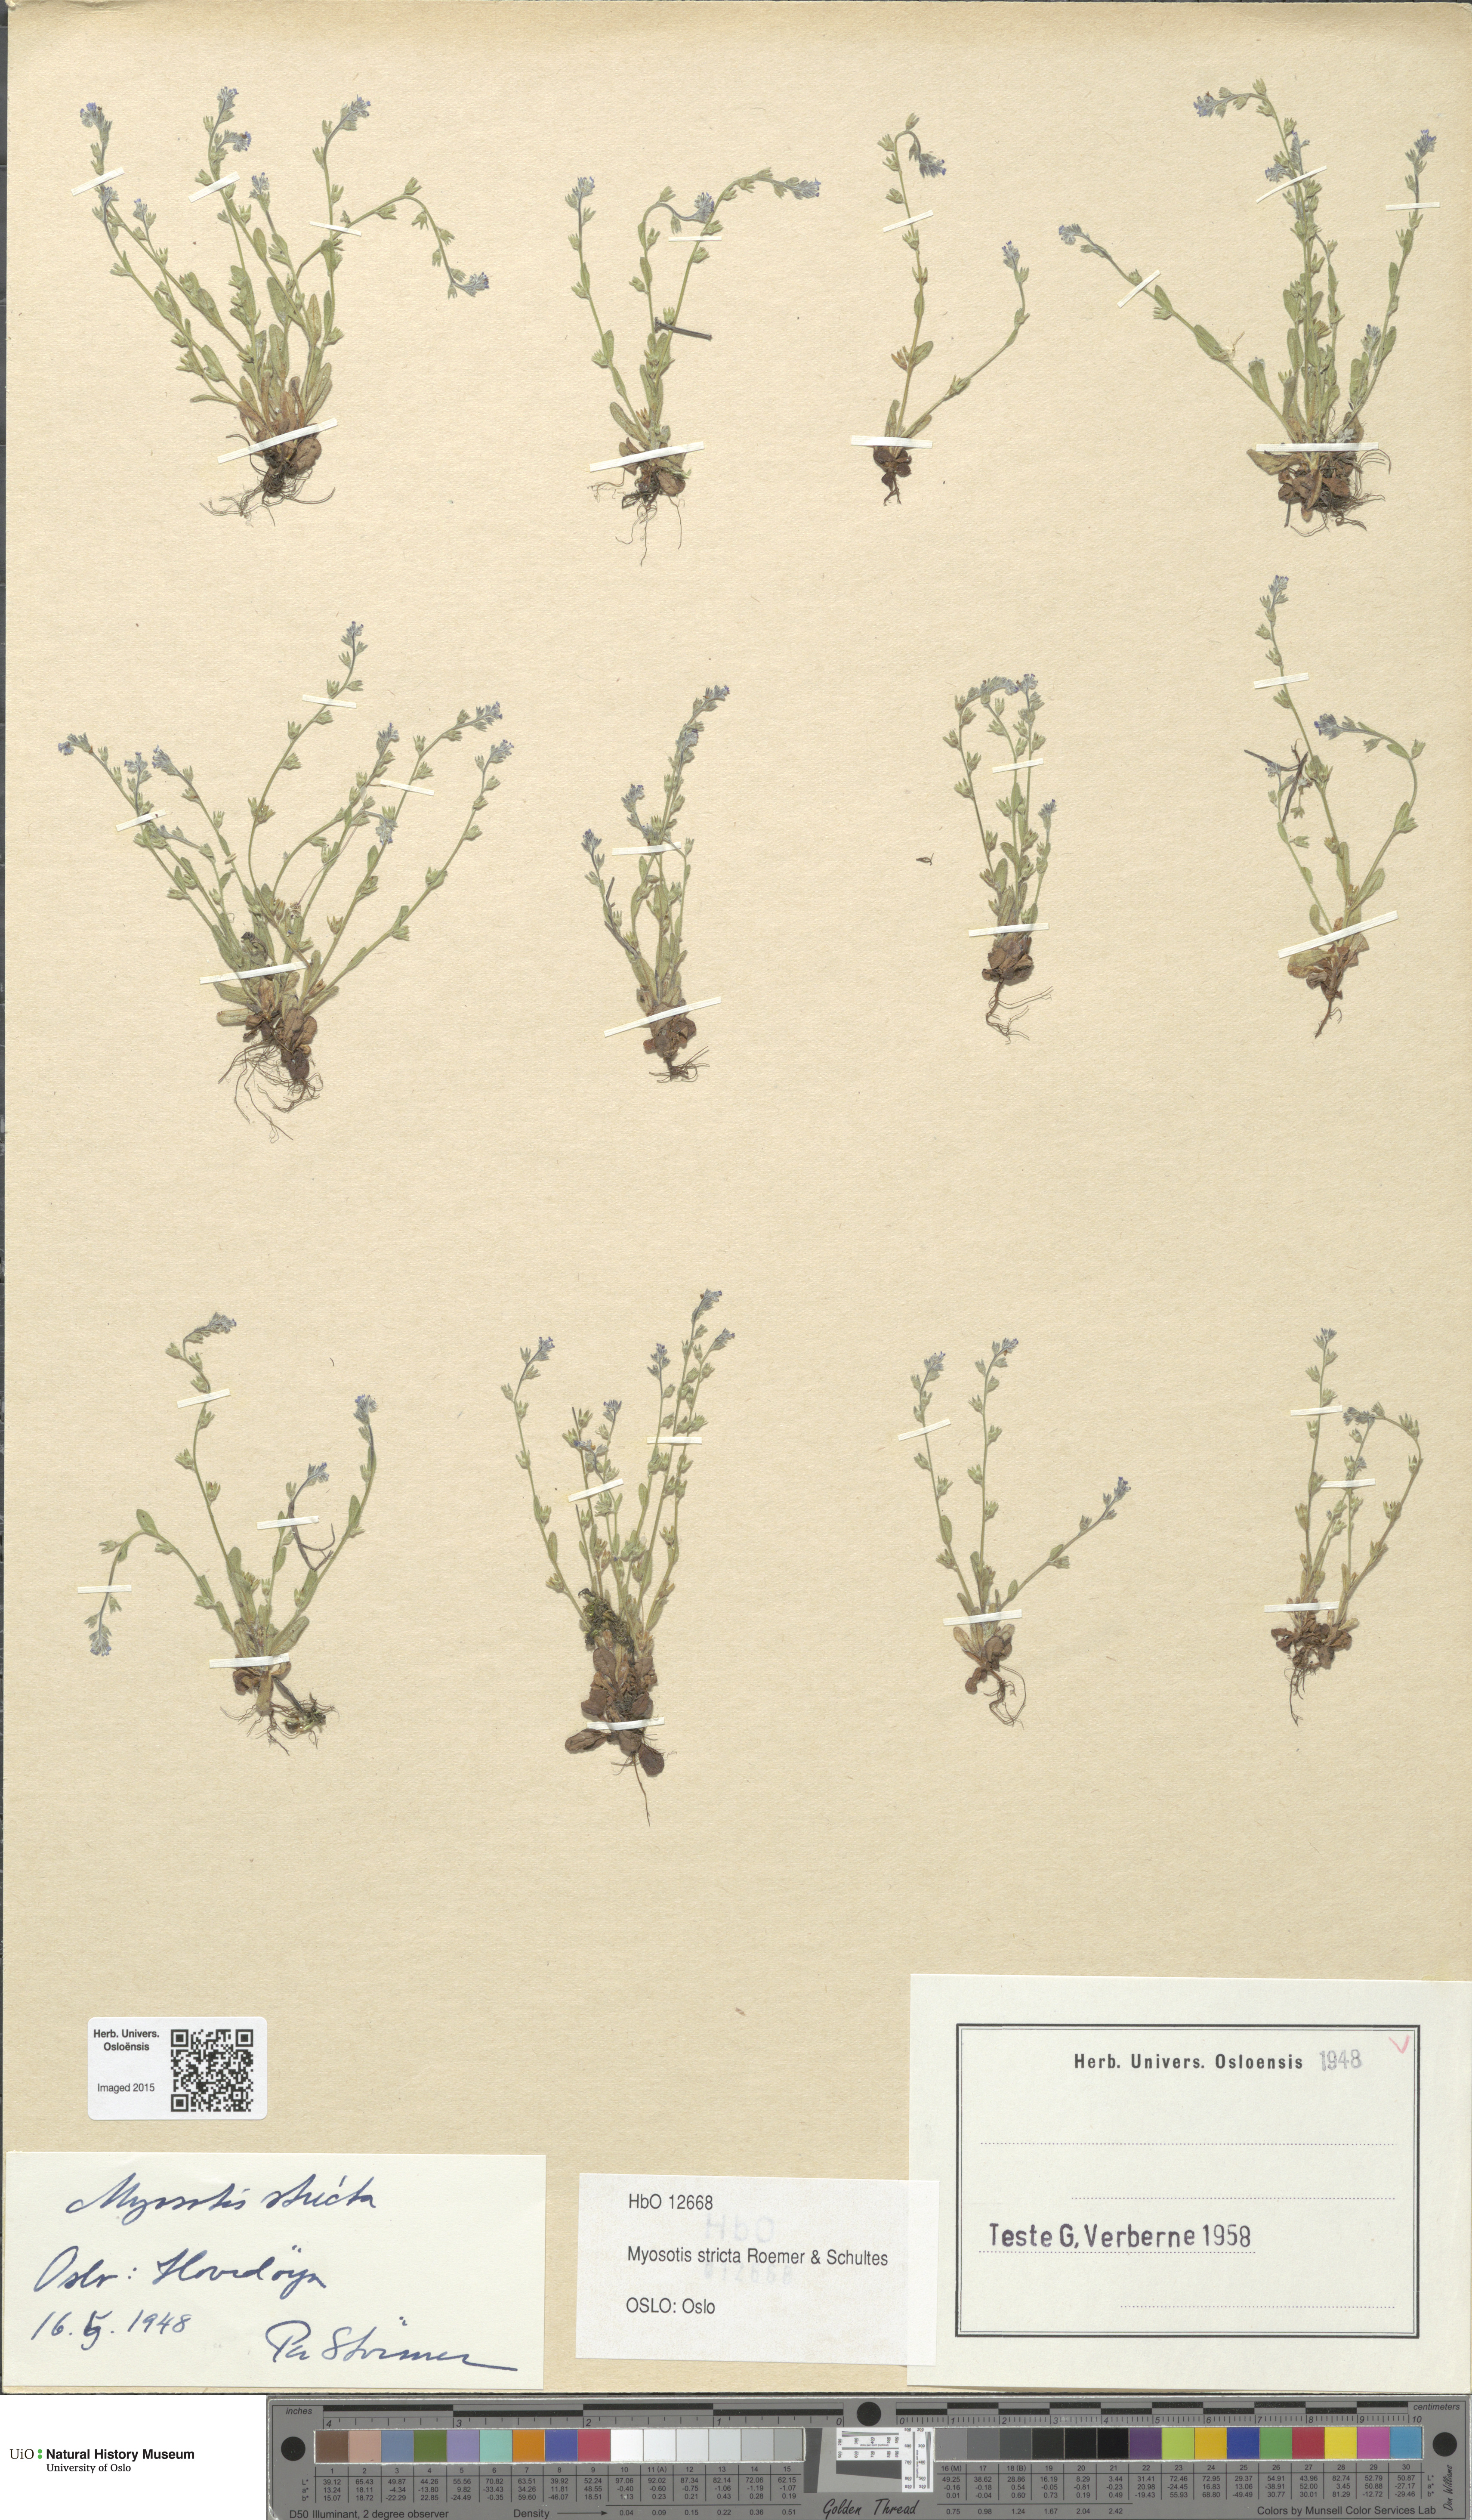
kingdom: Plantae
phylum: Tracheophyta
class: Magnoliopsida
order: Boraginales
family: Boraginaceae
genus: Myosotis
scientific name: Myosotis stricta
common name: Strict forget-me-not
